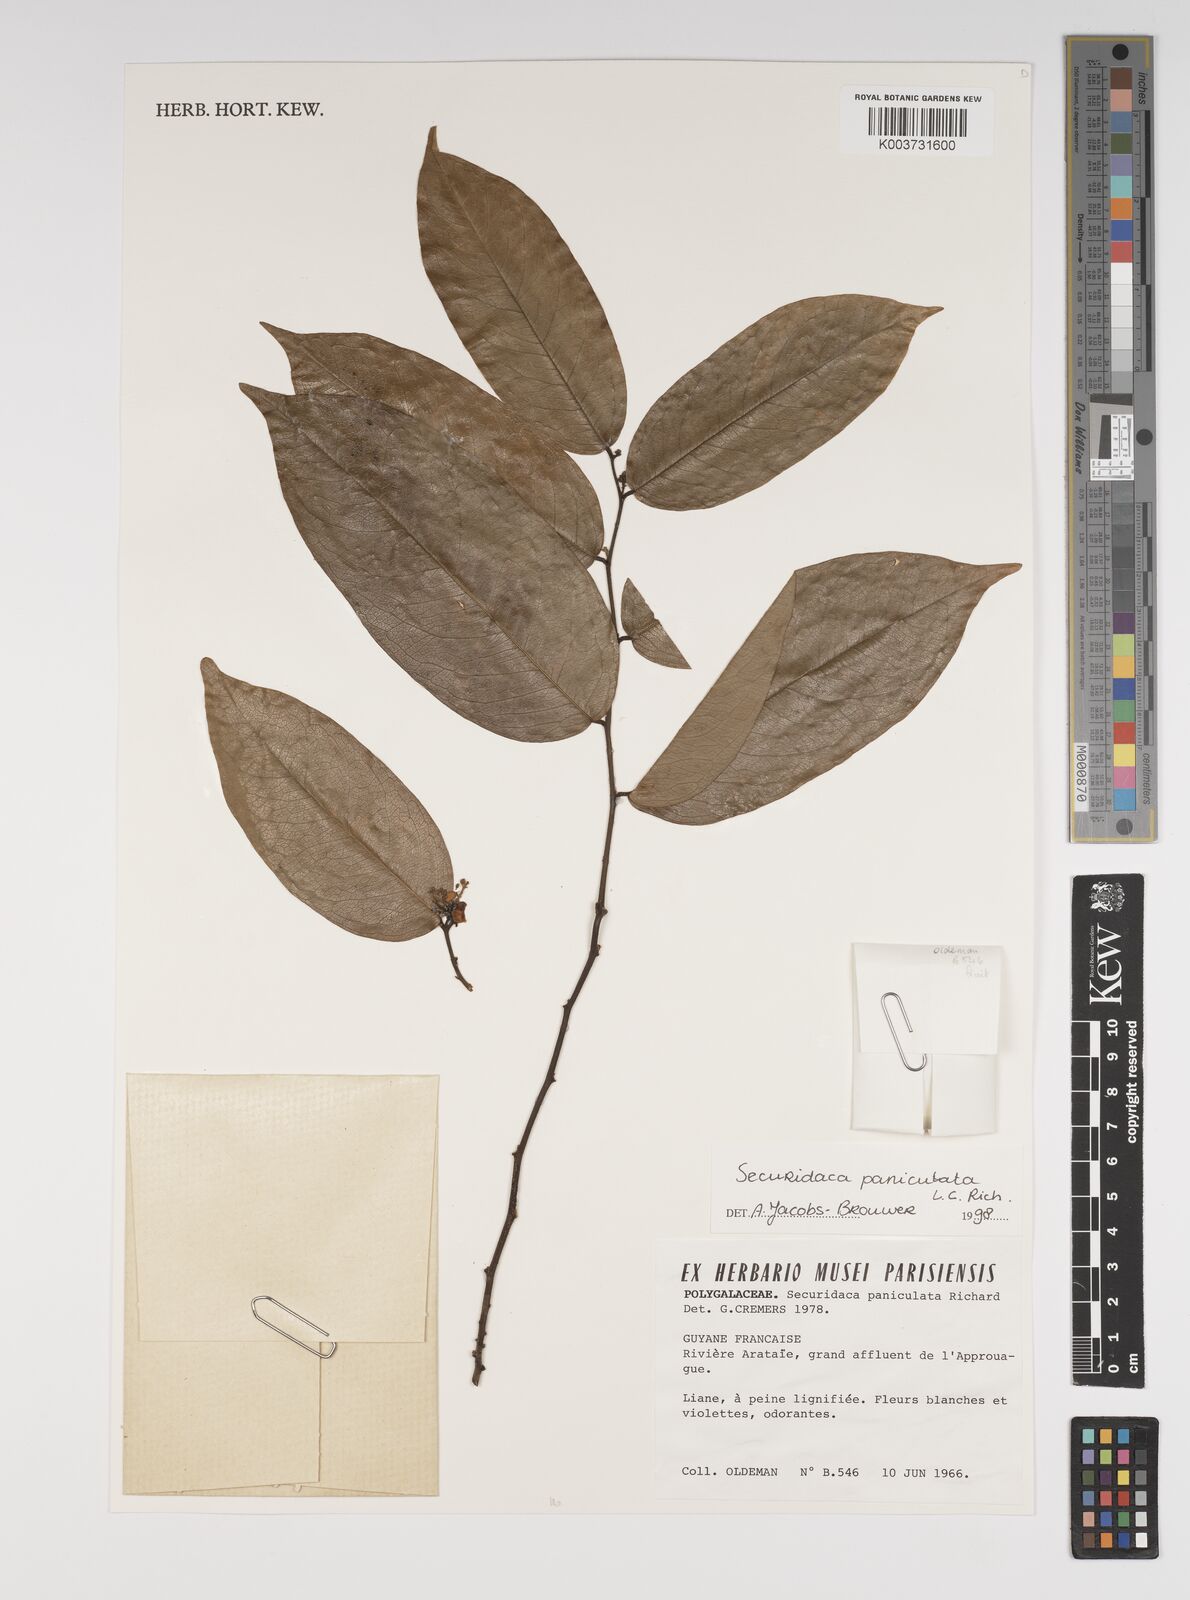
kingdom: Plantae
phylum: Tracheophyta
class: Magnoliopsida
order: Fabales
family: Polygalaceae
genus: Securidaca
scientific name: Securidaca paniculata
